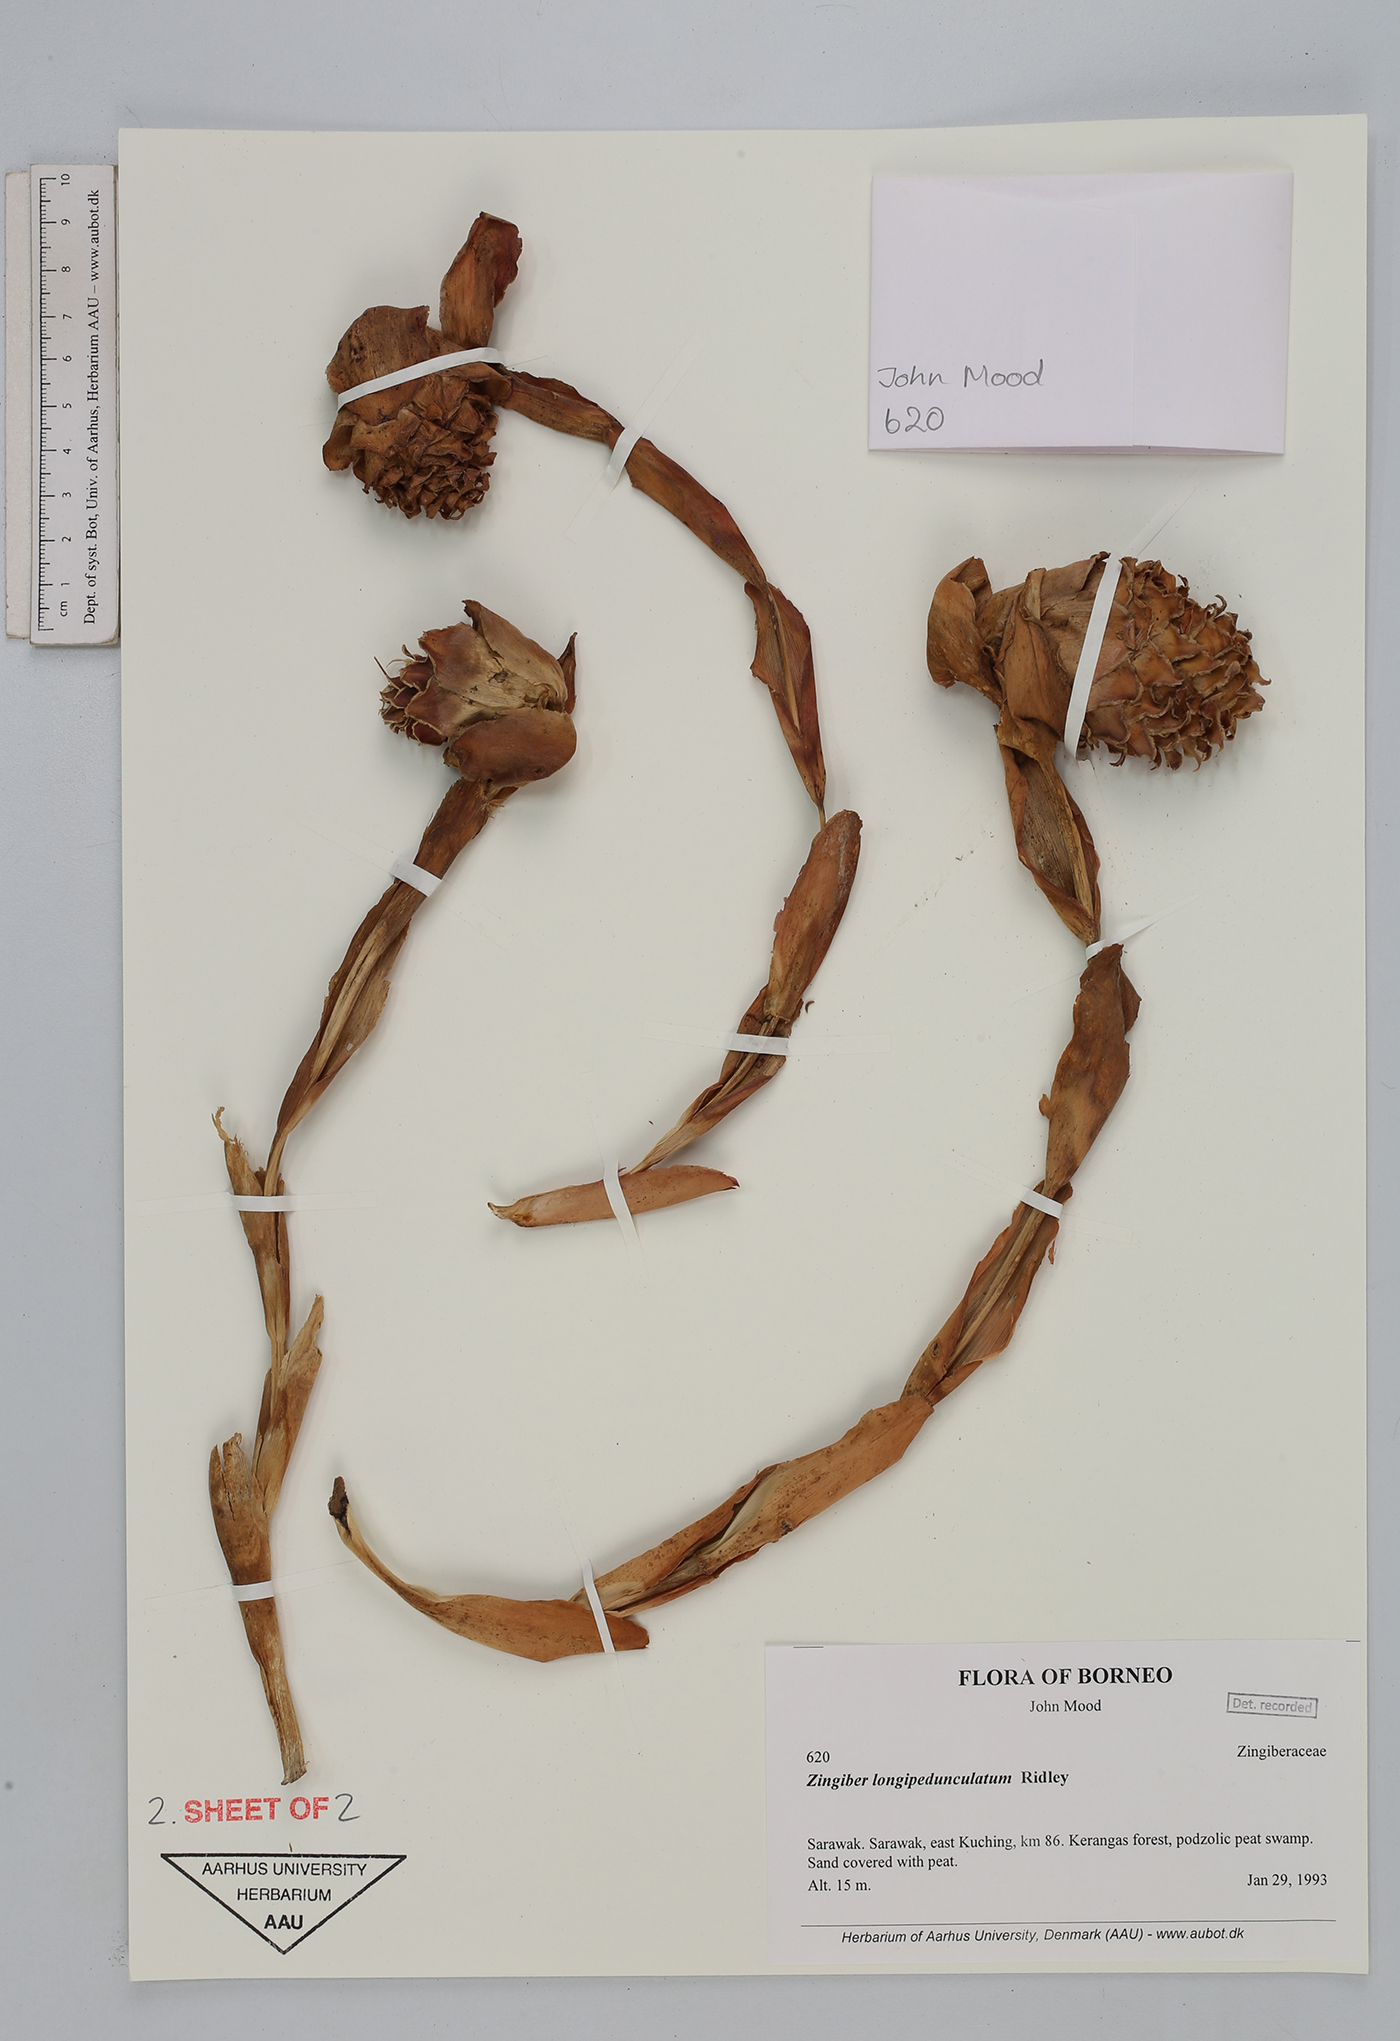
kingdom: Plantae
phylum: Tracheophyta
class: Liliopsida
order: Zingiberales
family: Zingiberaceae
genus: Zingiber
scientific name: Zingiber longipedunculatum
